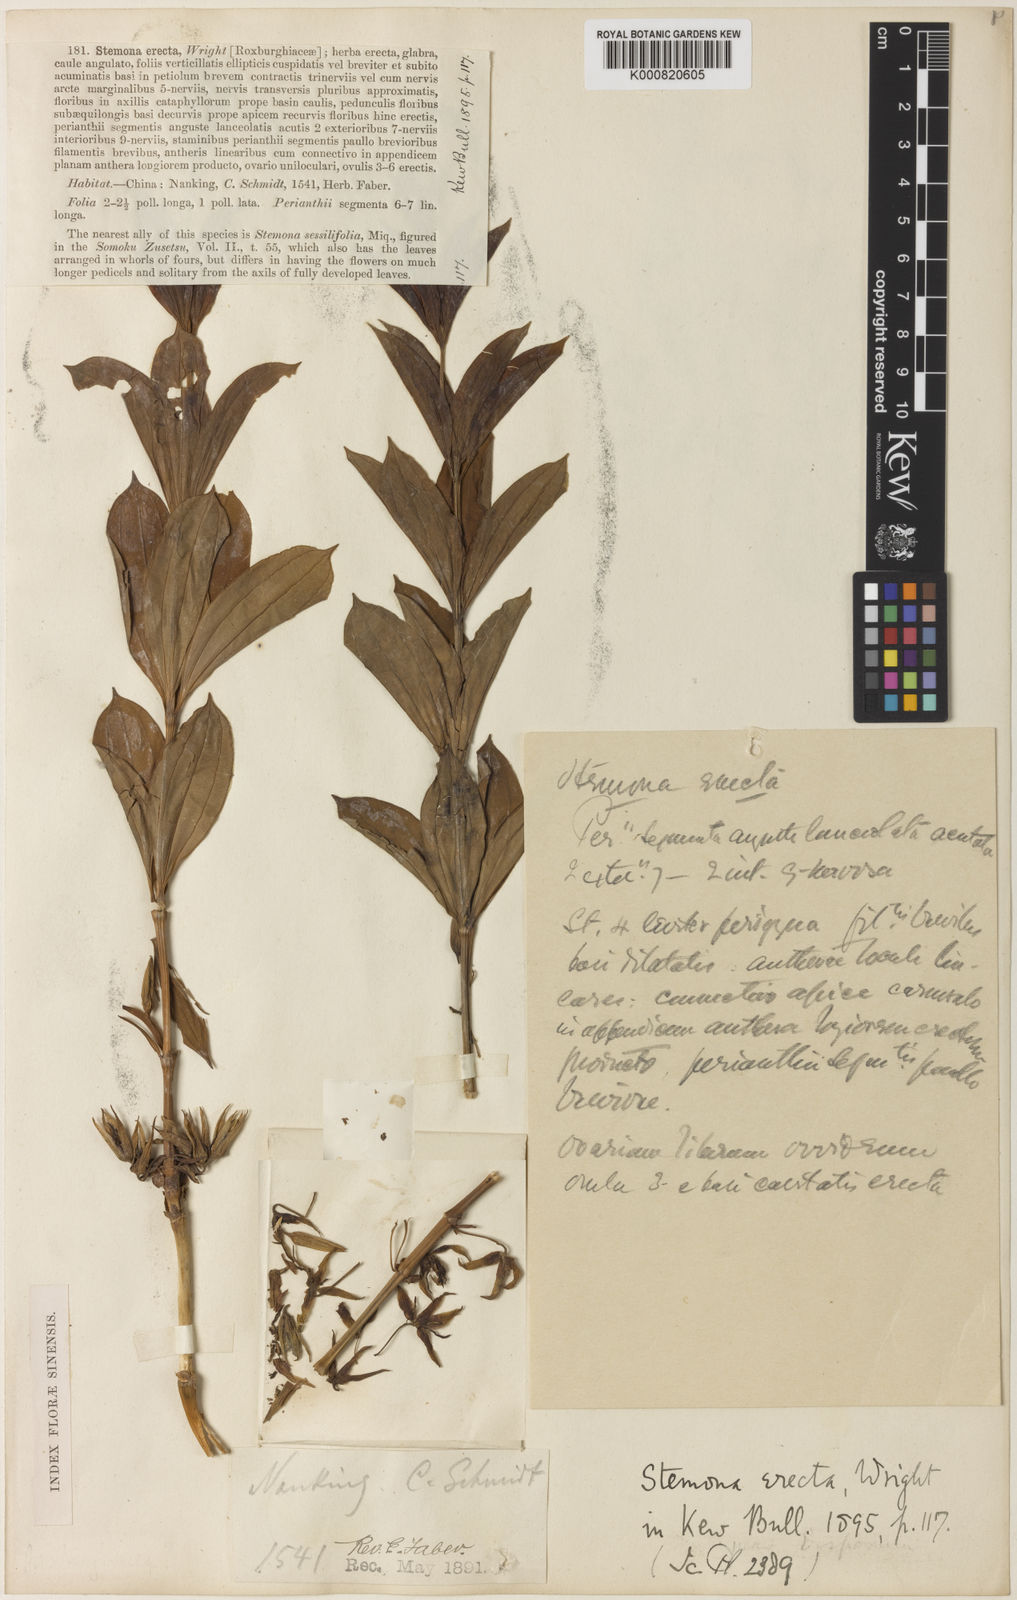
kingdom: Plantae
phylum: Tracheophyta
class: Liliopsida
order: Pandanales
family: Stemonaceae
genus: Stemona
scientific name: Stemona sessilifolia
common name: Stemona
